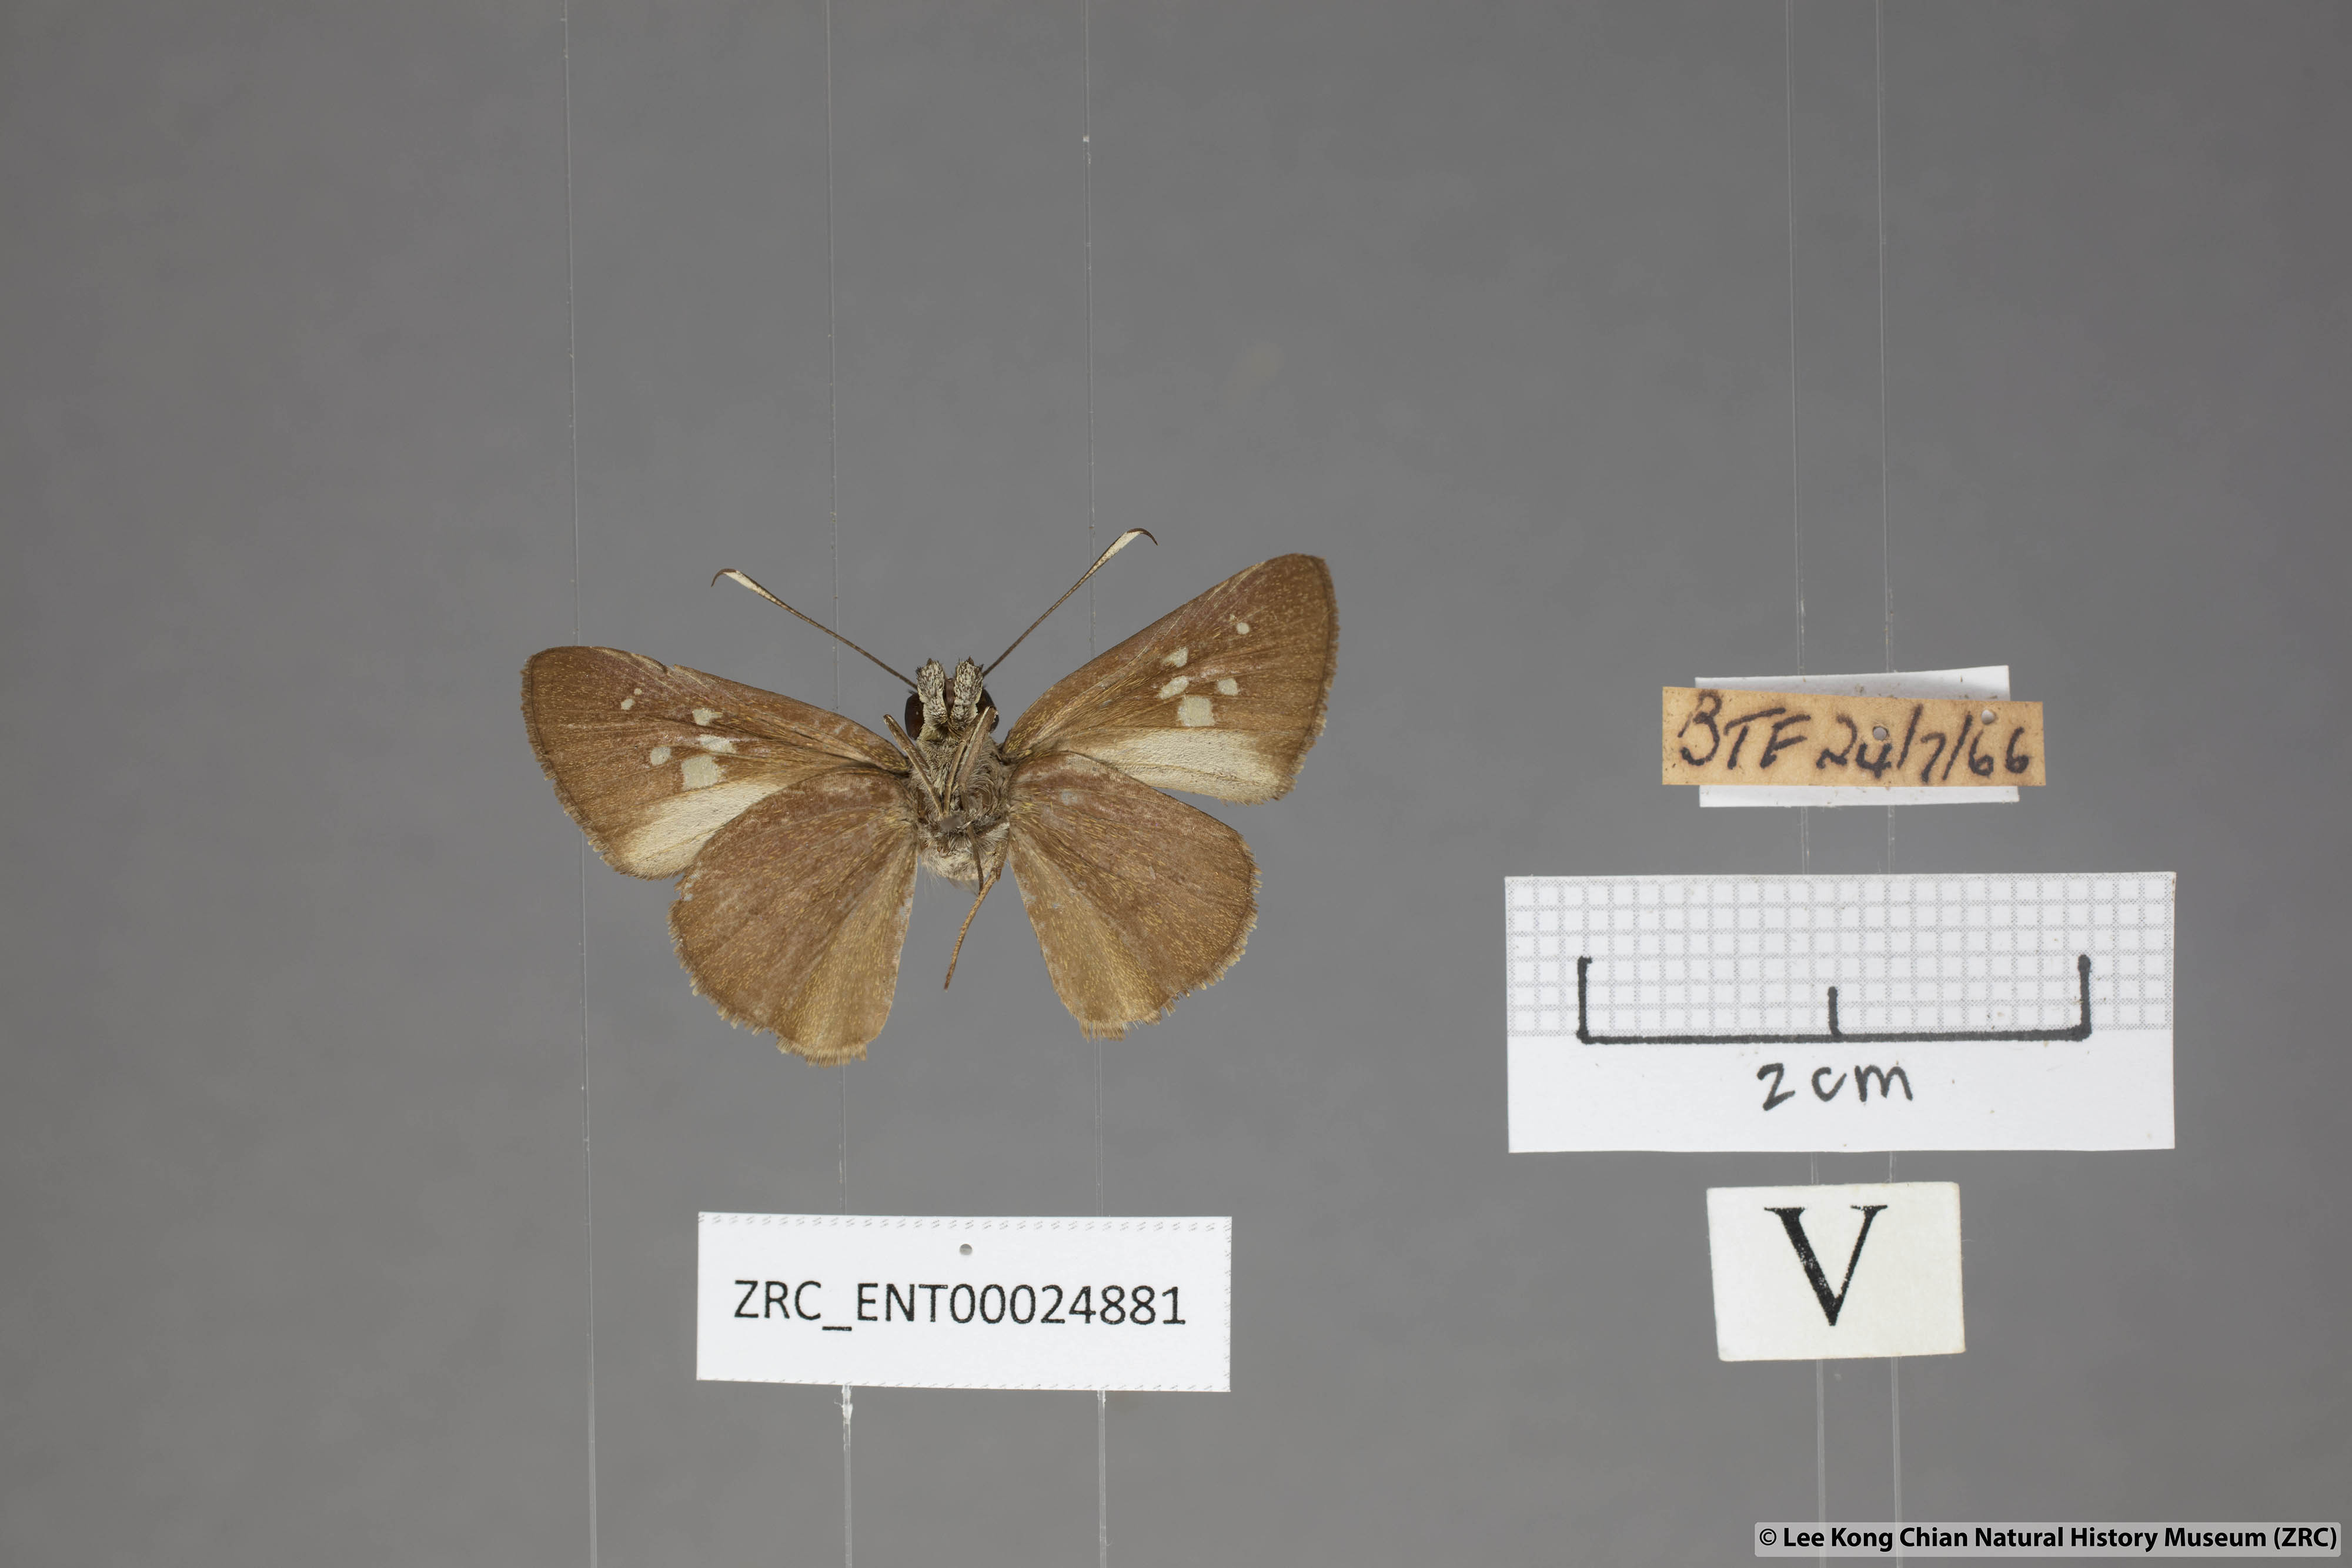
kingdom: Animalia
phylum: Arthropoda
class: Insecta
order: Lepidoptera
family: Hesperiidae
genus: Isma
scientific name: Isma protoclea
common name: Bicolour long-horned flitter
